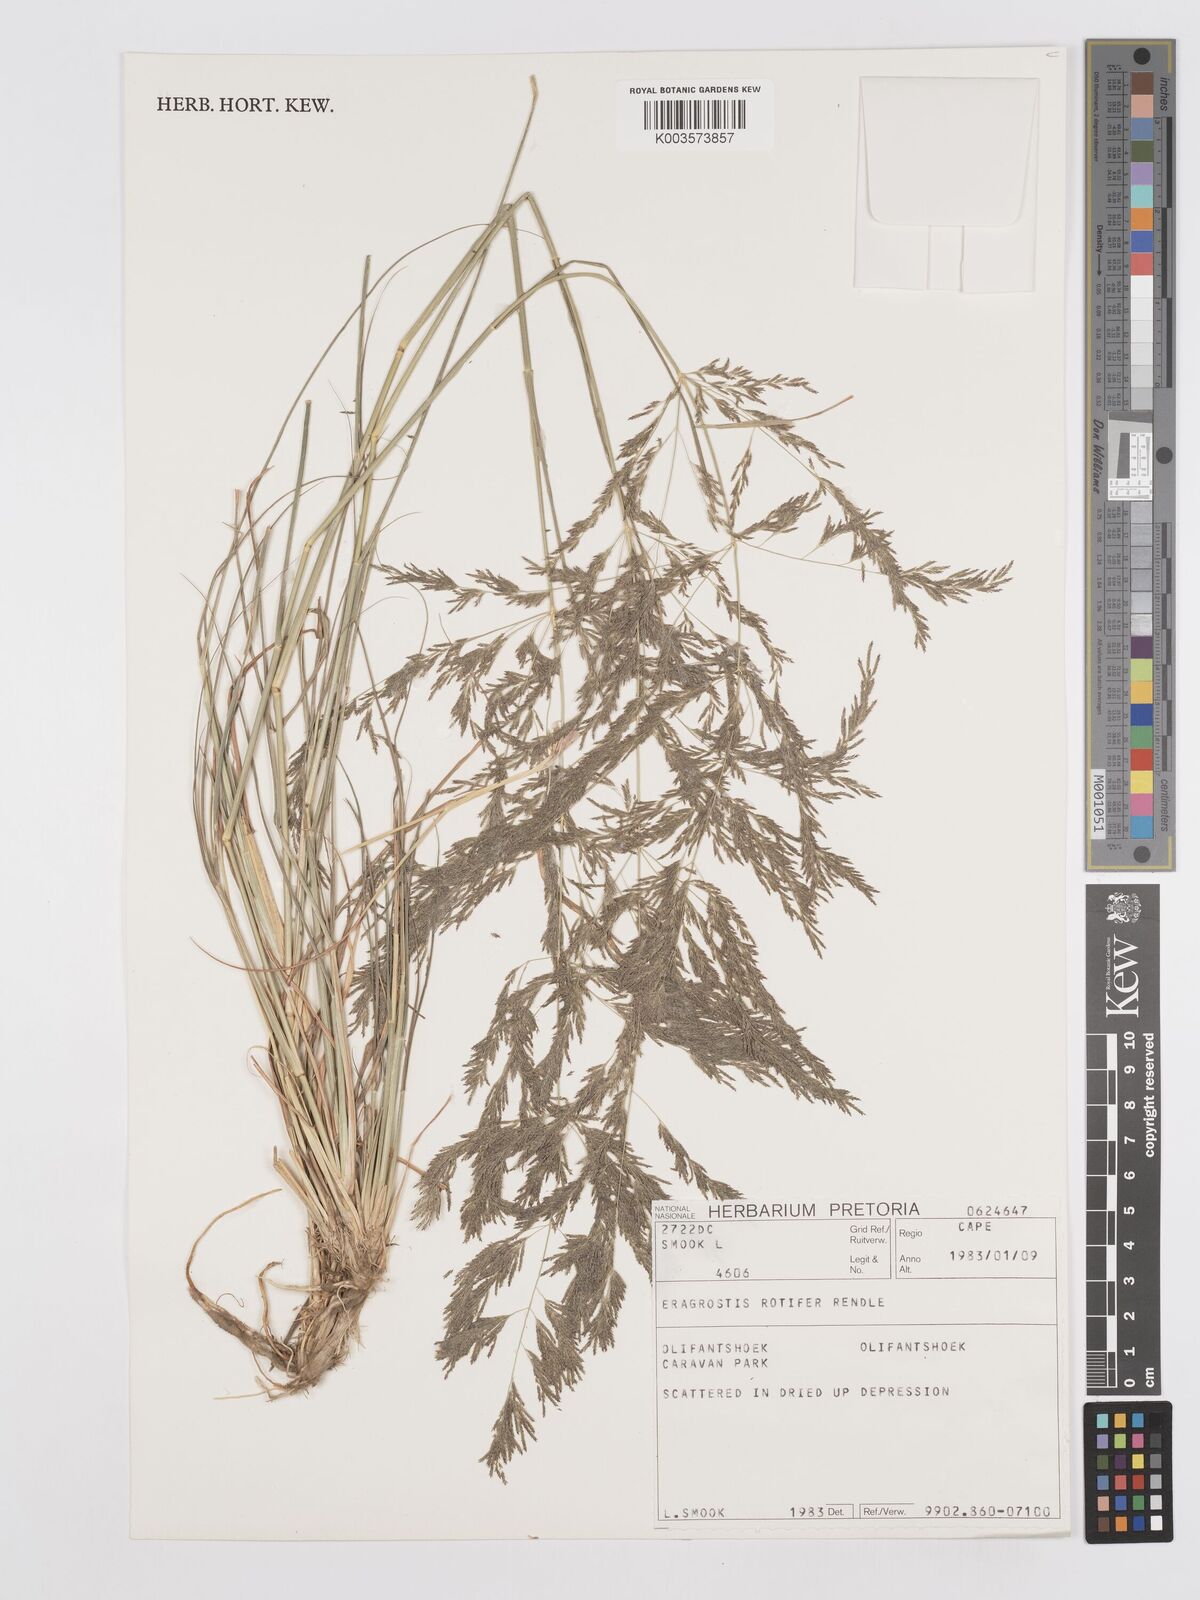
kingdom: Plantae
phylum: Tracheophyta
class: Liliopsida
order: Poales
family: Poaceae
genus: Eragrostis
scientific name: Eragrostis porosa
